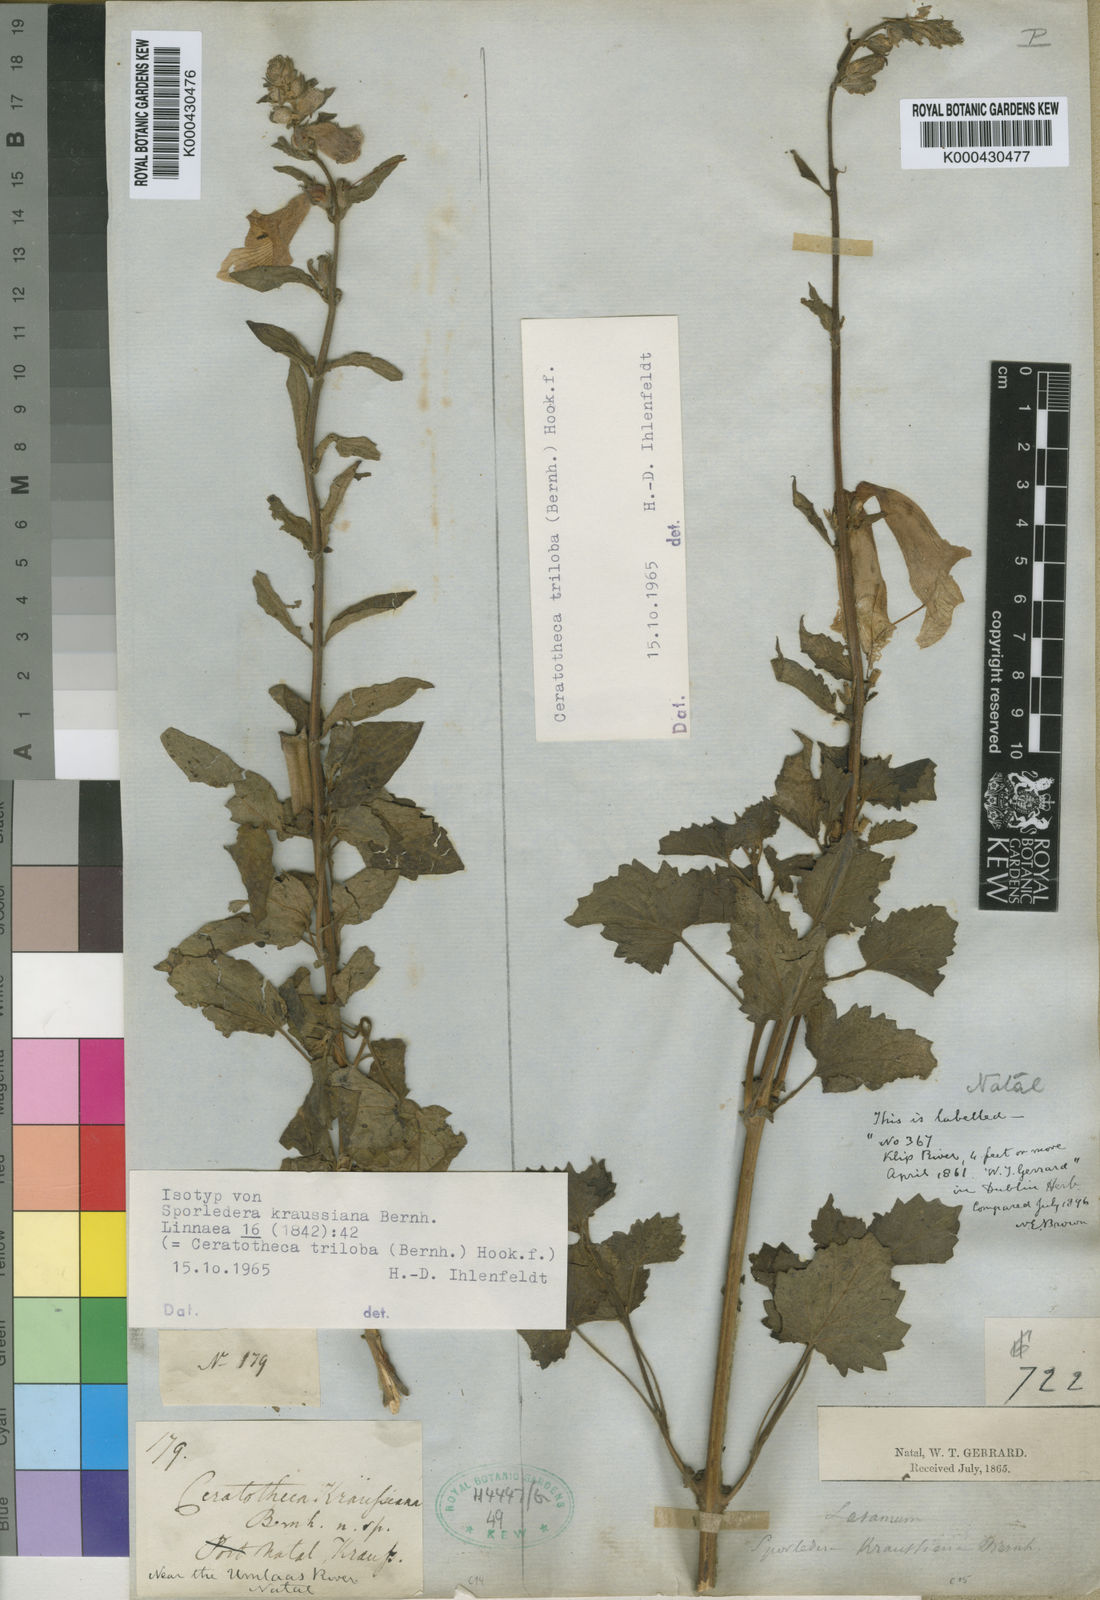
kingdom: Plantae
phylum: Tracheophyta
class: Magnoliopsida
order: Lamiales
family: Pedaliaceae
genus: Sesamum
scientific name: Sesamum trilobum
